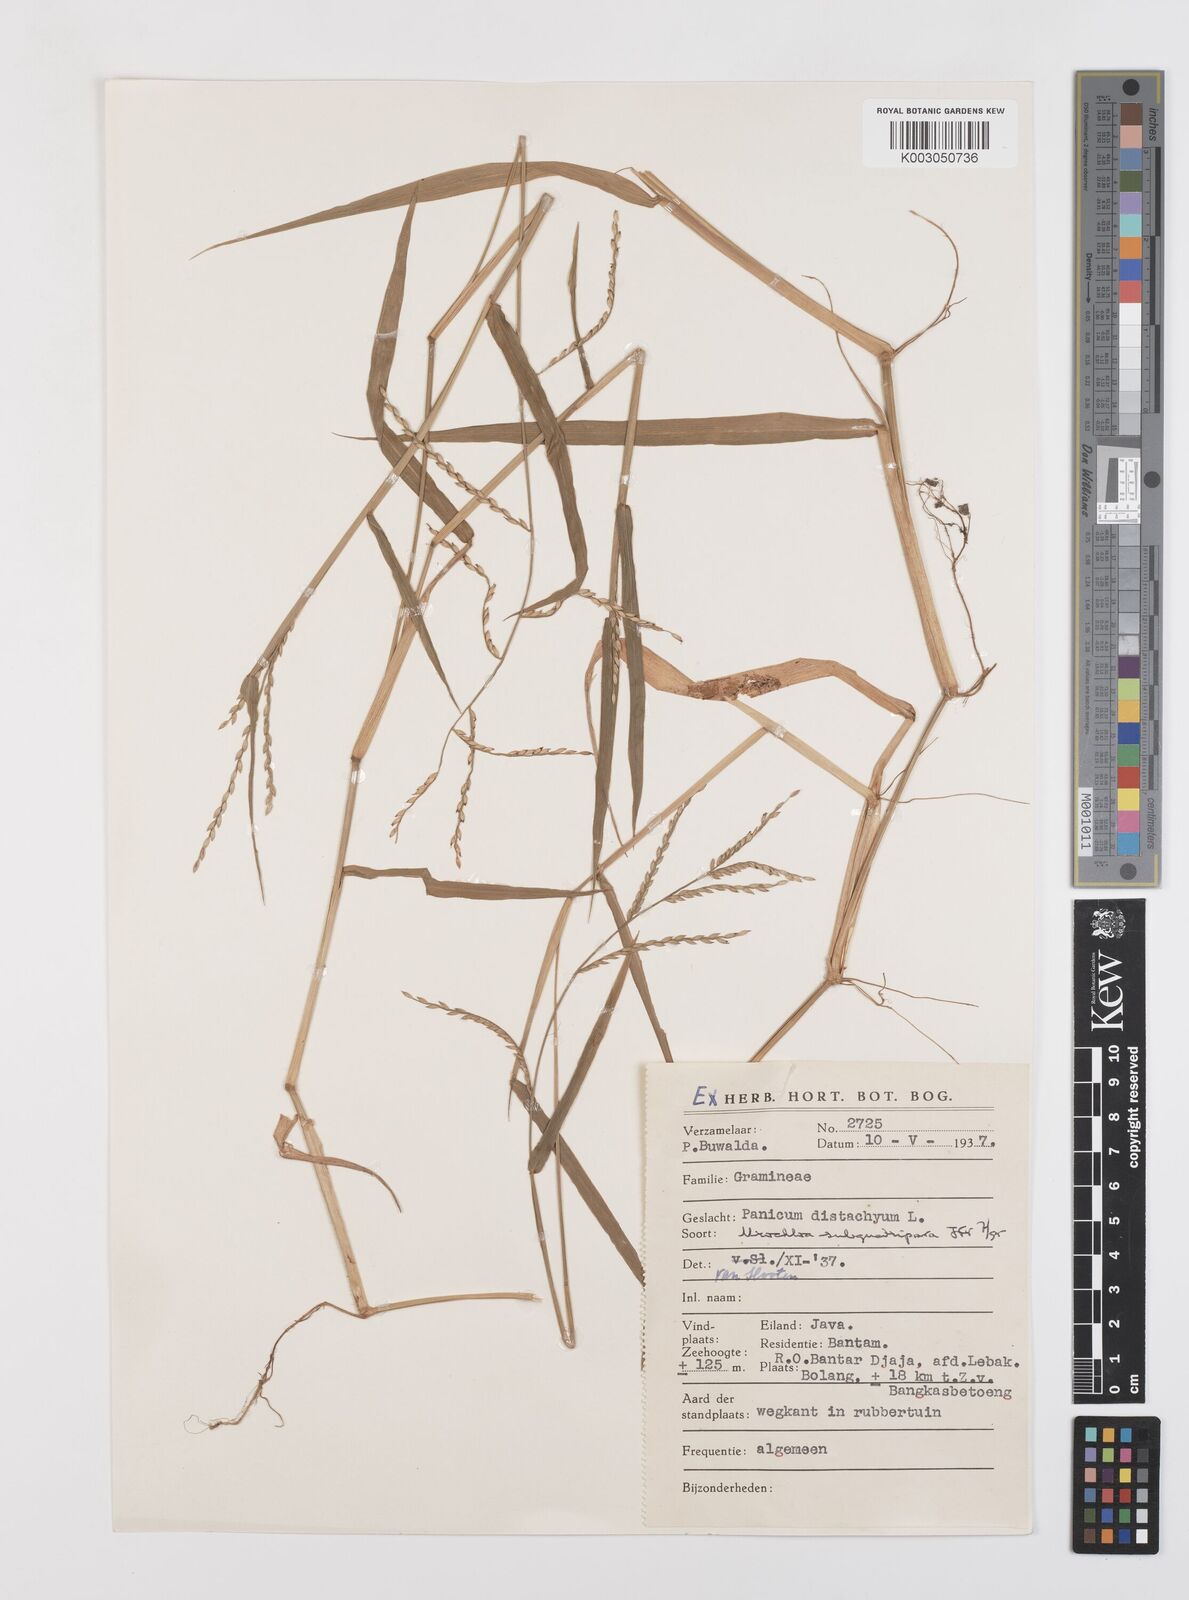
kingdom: Plantae
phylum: Tracheophyta
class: Liliopsida
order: Poales
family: Poaceae
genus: Urochloa
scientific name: Urochloa subquadripara
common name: Armgrass millet
